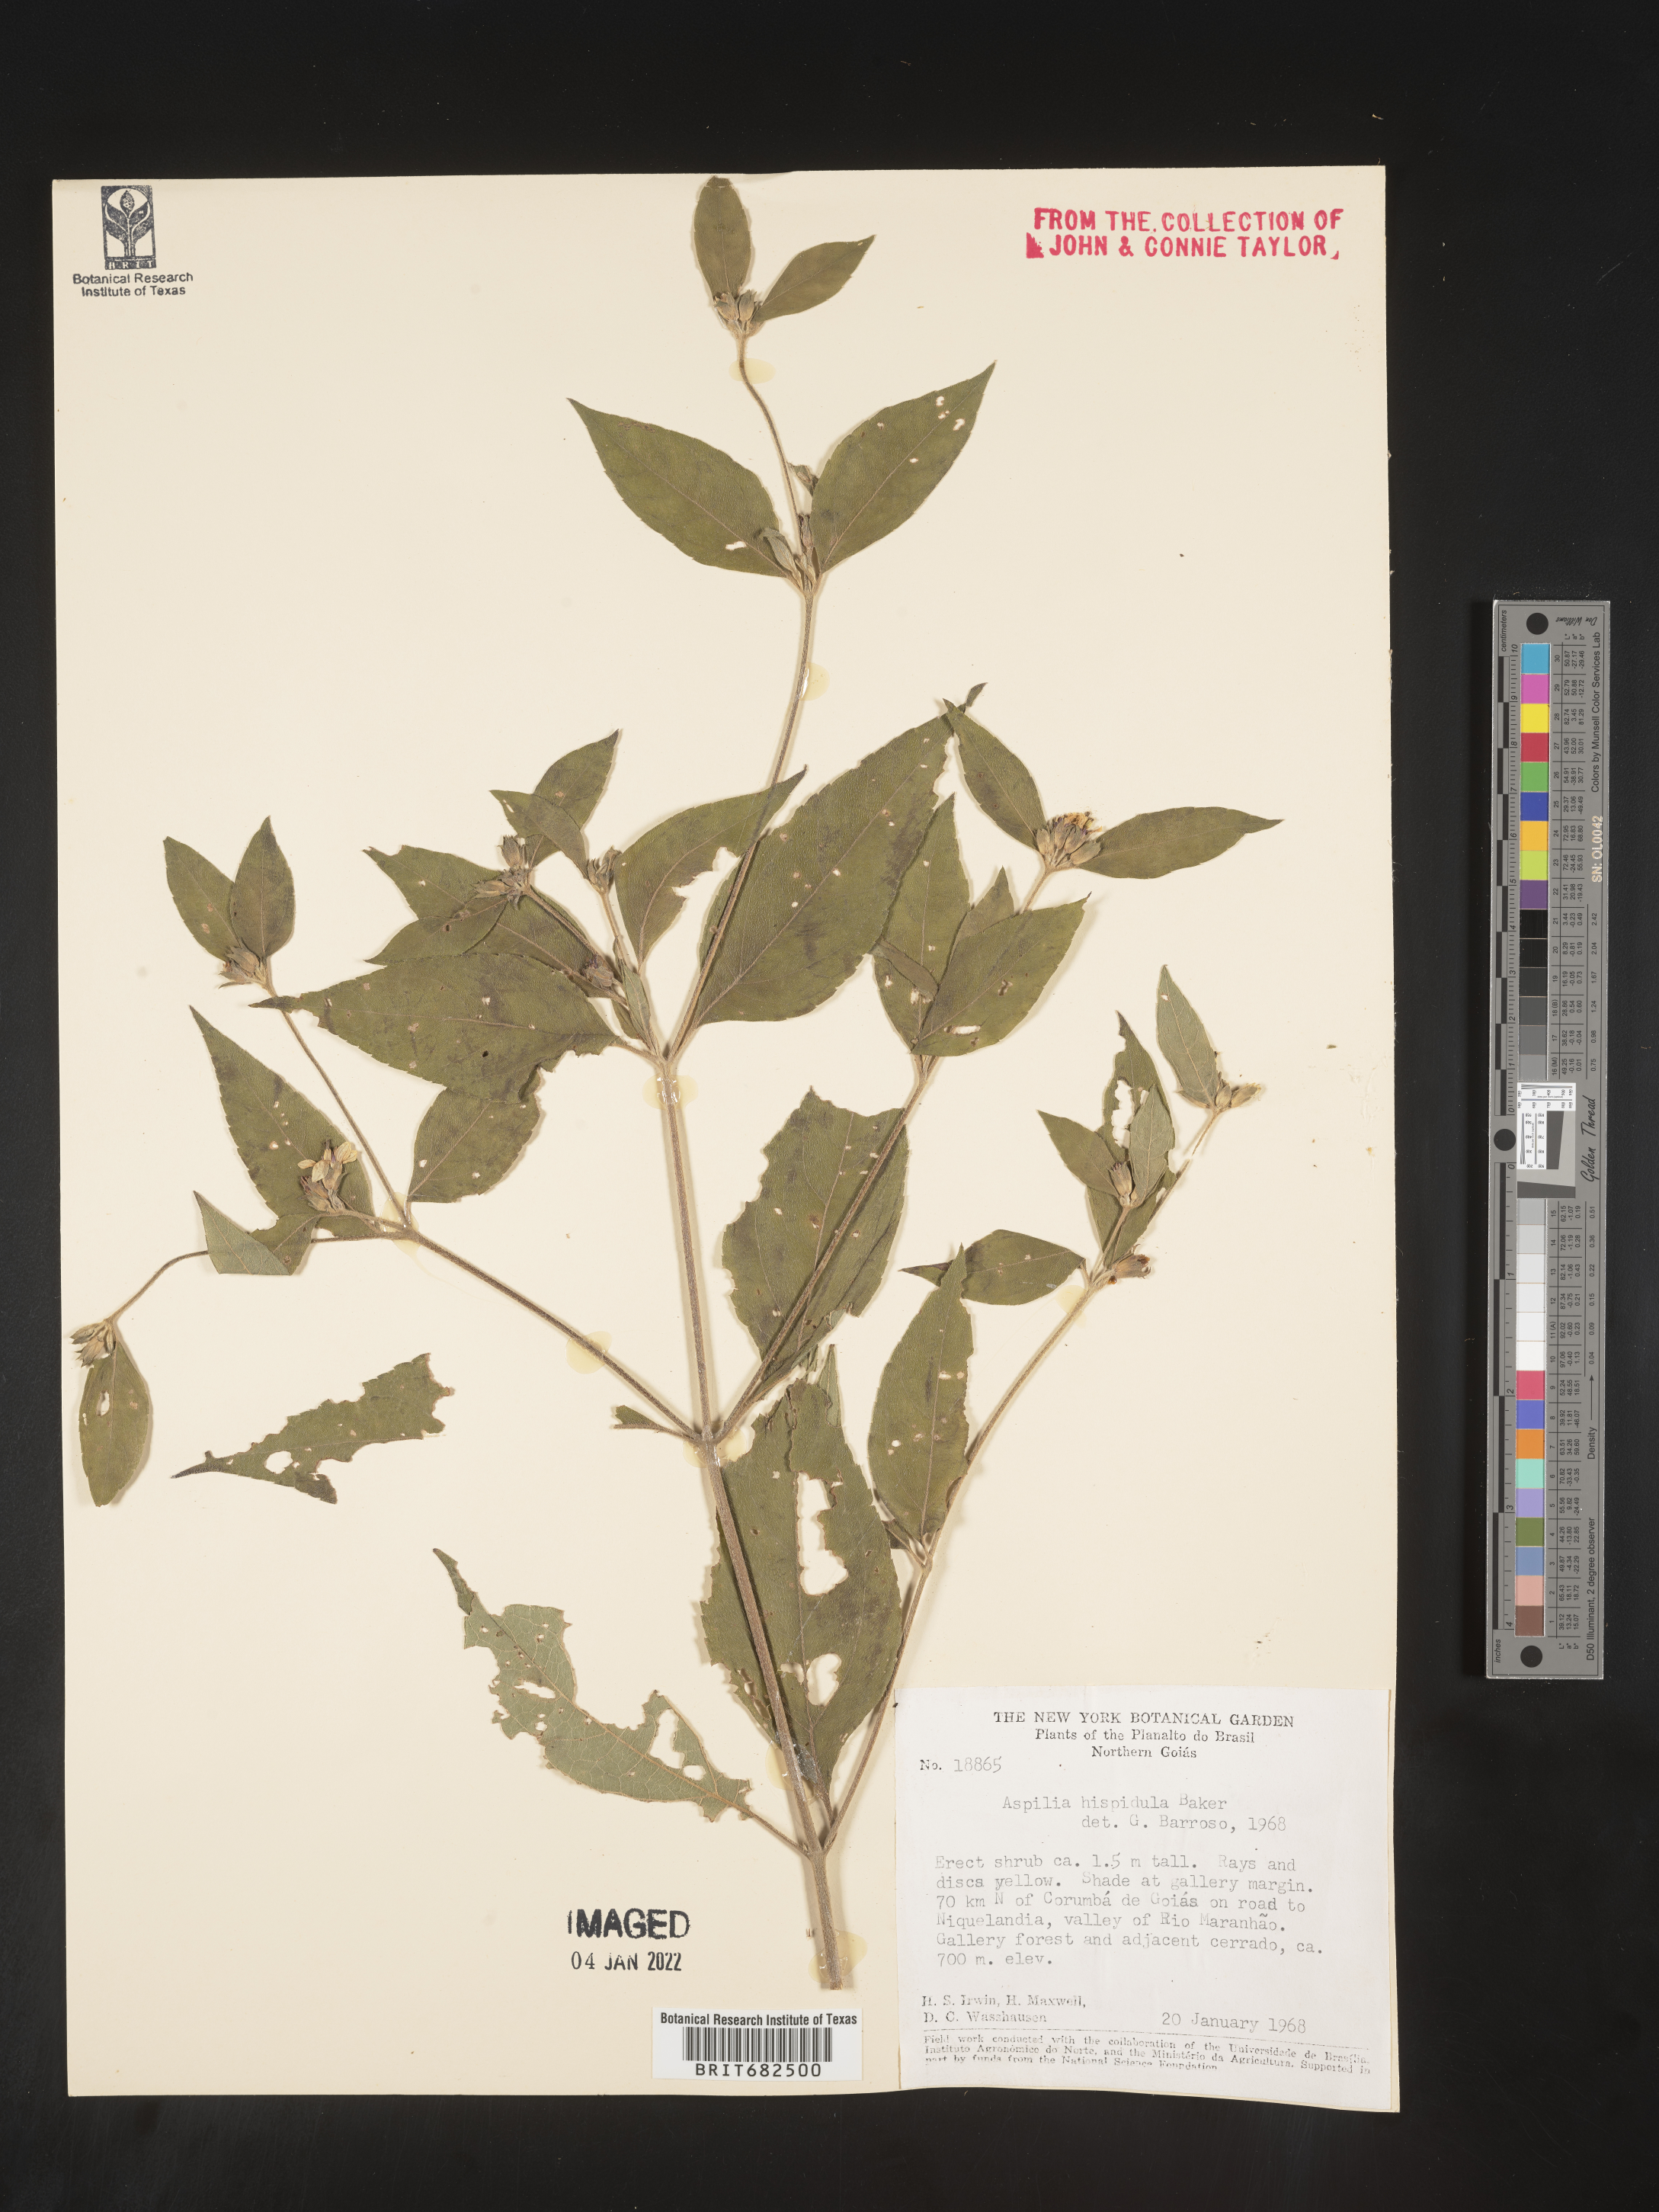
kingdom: Plantae
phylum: Tracheophyta
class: Magnoliopsida
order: Asterales
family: Asteraceae
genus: Aspilia
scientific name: Aspilia
